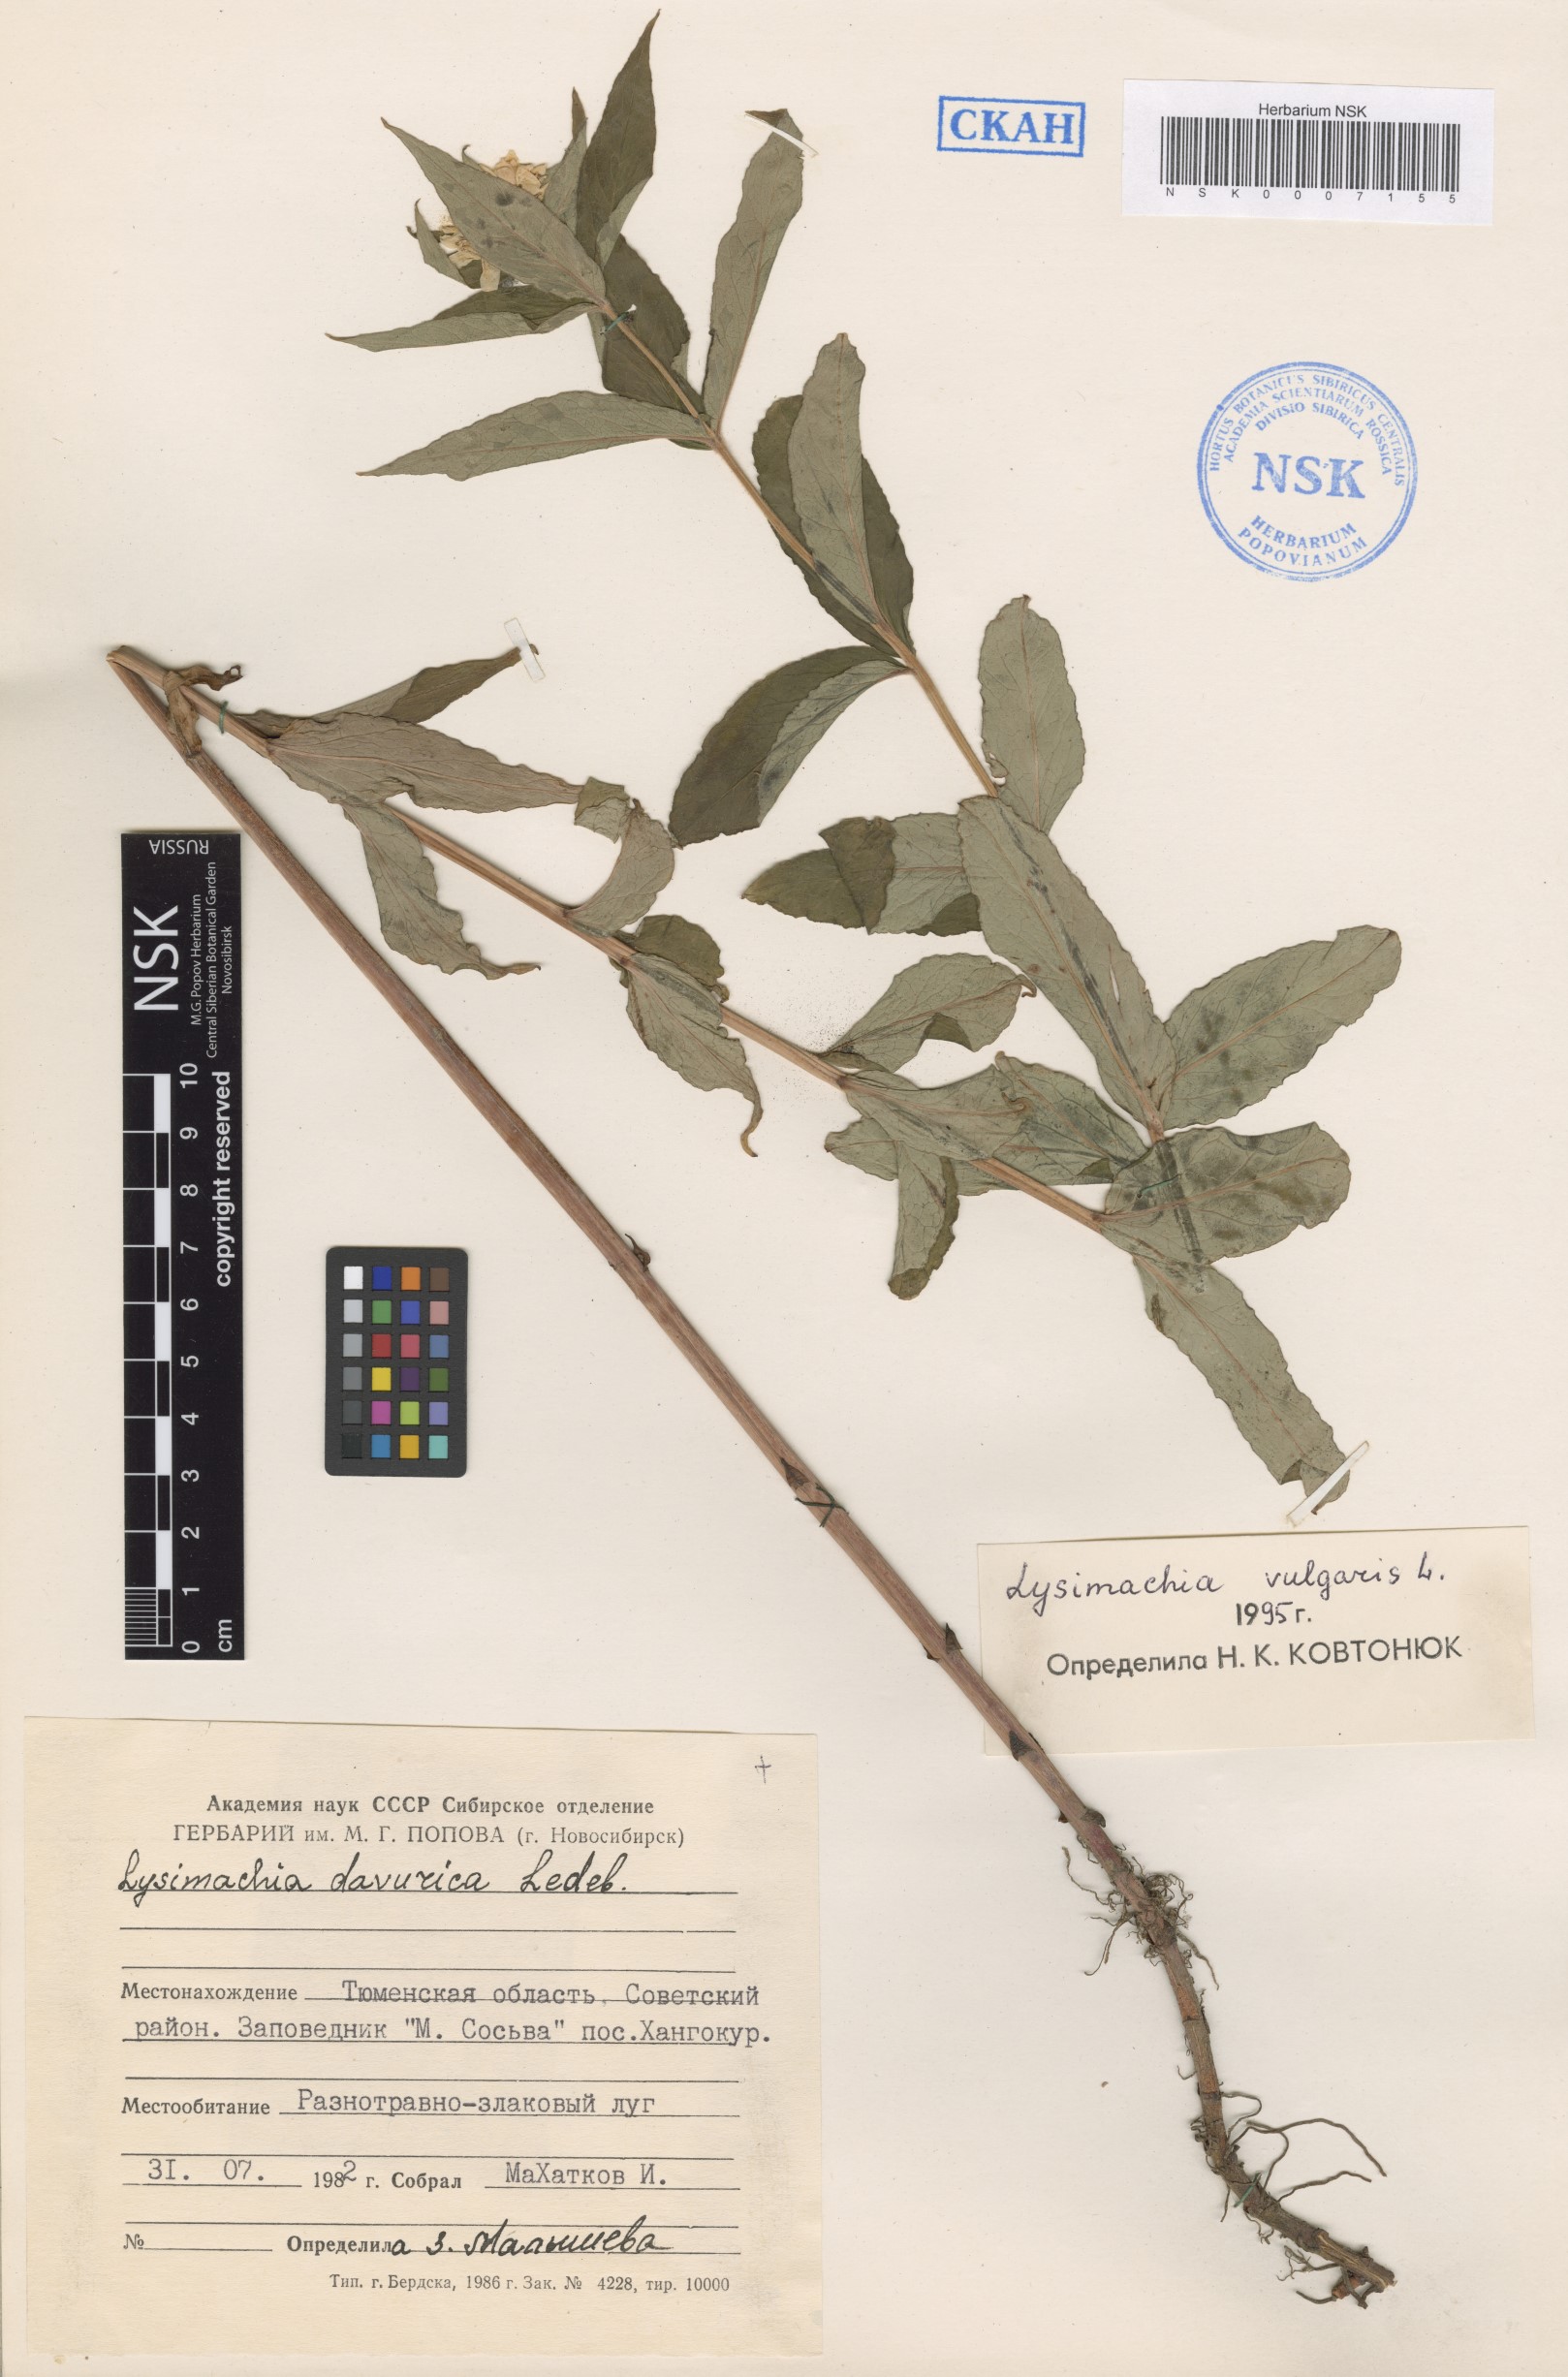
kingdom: Plantae
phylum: Tracheophyta
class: Magnoliopsida
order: Ericales
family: Primulaceae
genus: Lysimachia
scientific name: Lysimachia vulgaris
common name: Yellow loosestrife
